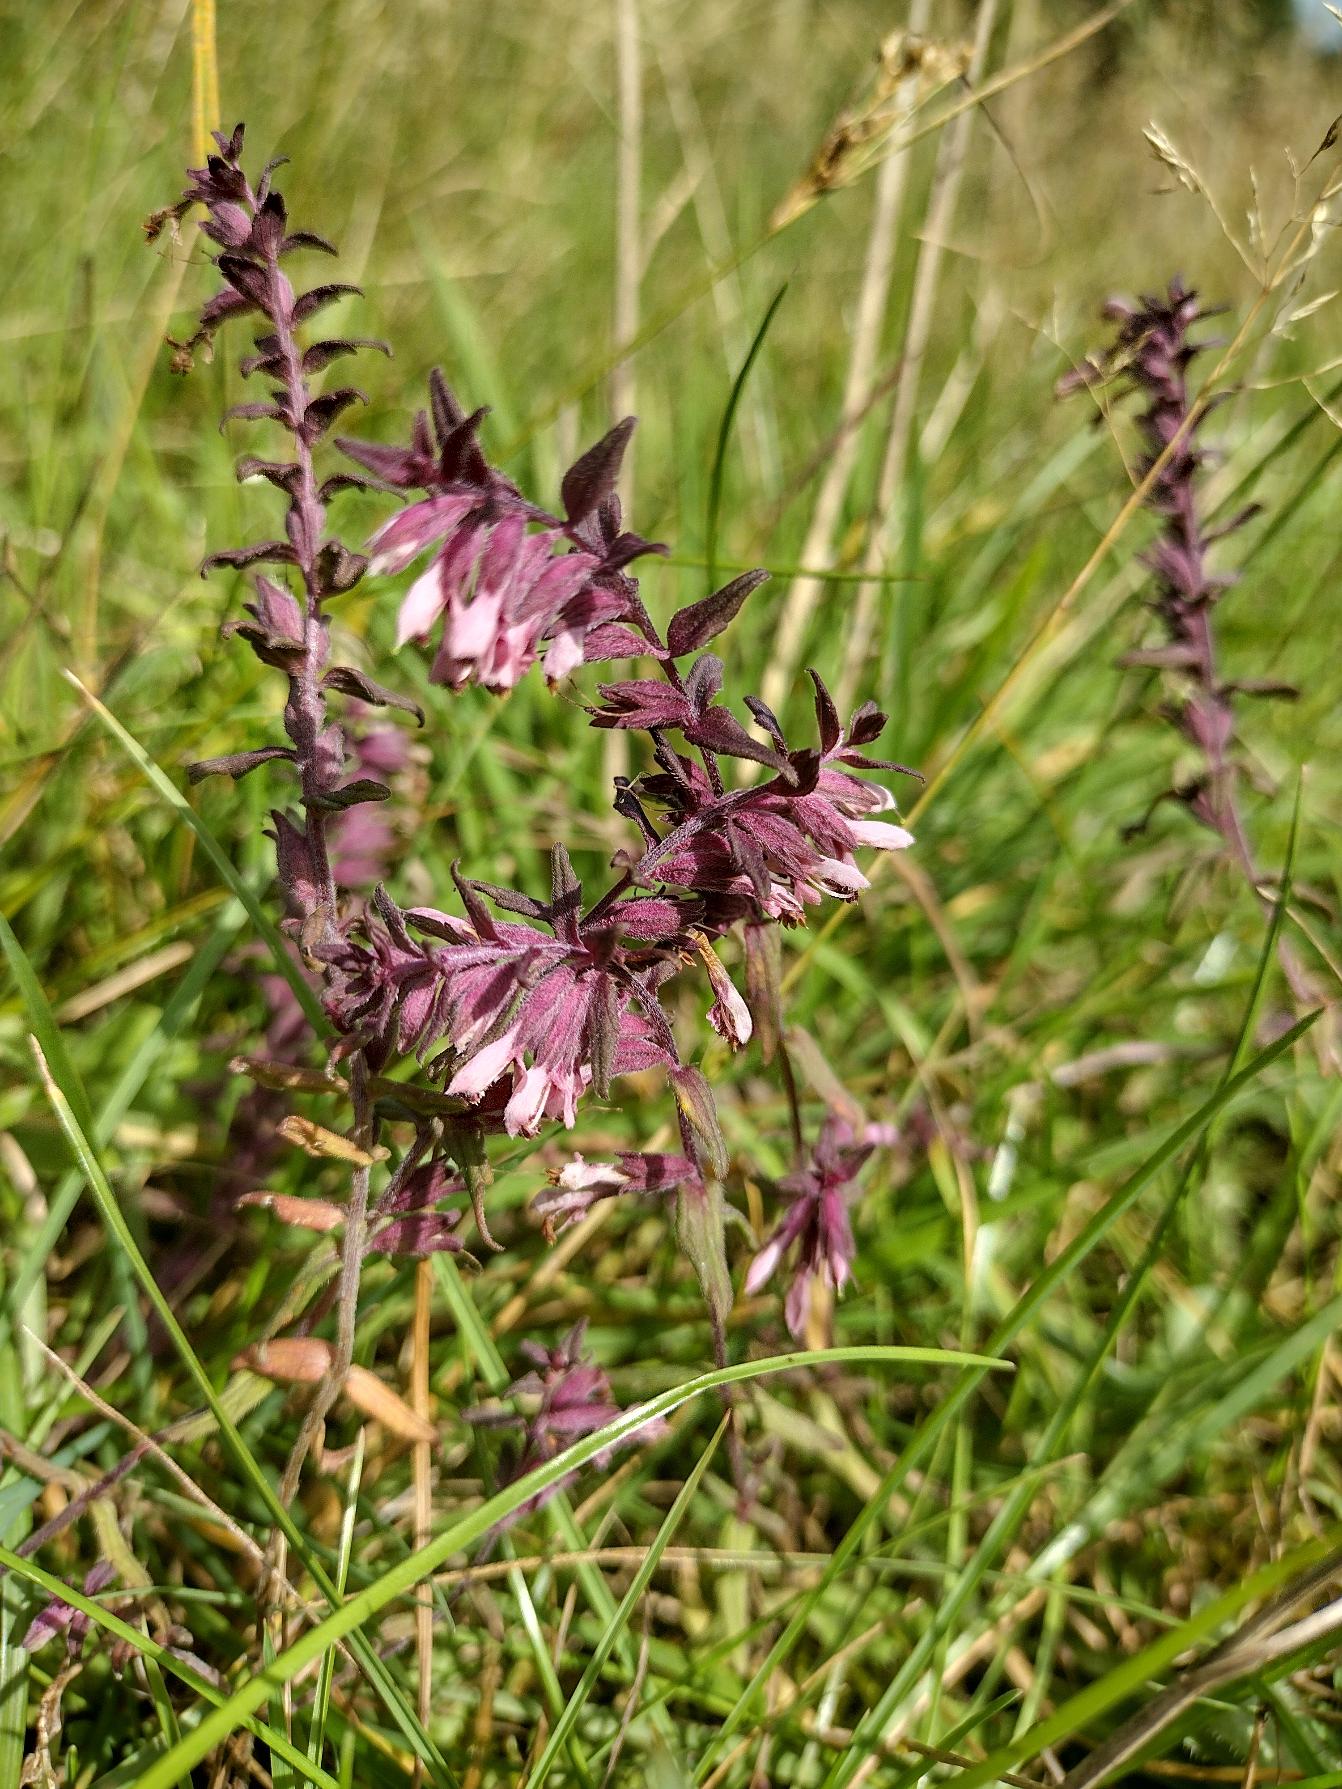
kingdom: Plantae
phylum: Tracheophyta
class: Magnoliopsida
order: Lamiales
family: Orobanchaceae
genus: Odontites
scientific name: Odontites
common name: Rødtopslægten
